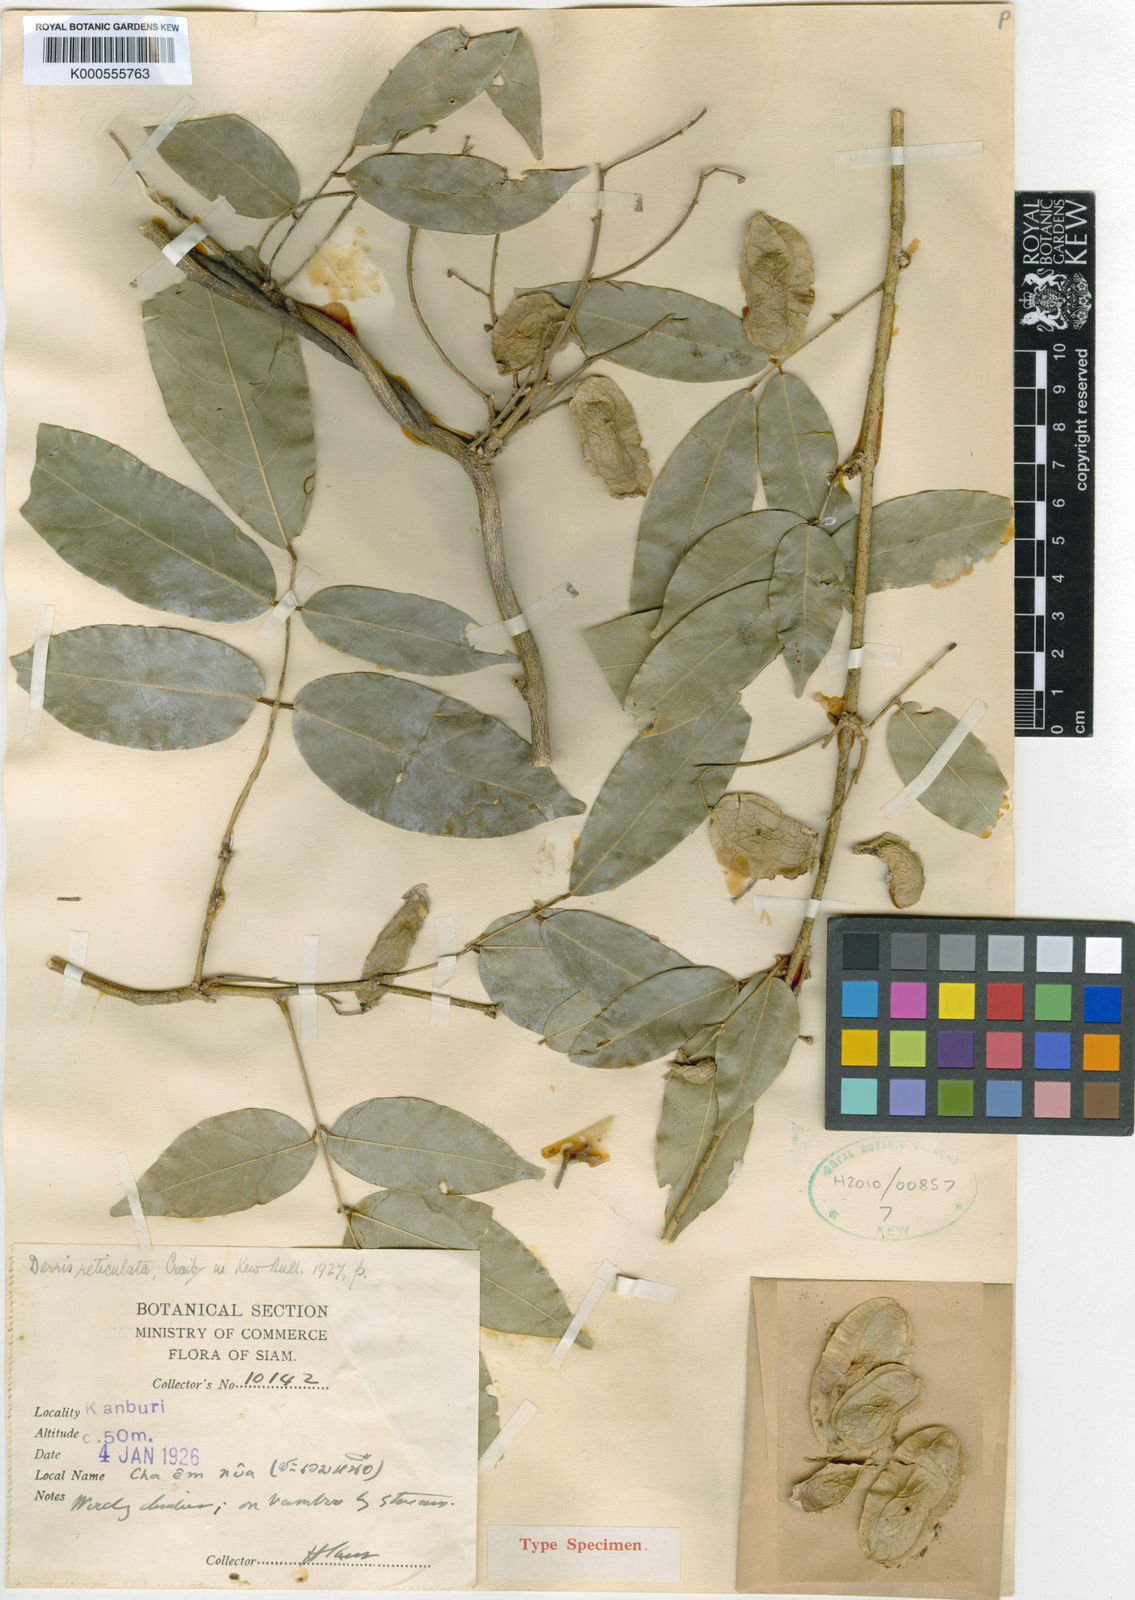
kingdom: Plantae
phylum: Tracheophyta
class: Magnoliopsida
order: Fabales
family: Fabaceae
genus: Derris
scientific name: Derris reticulata
